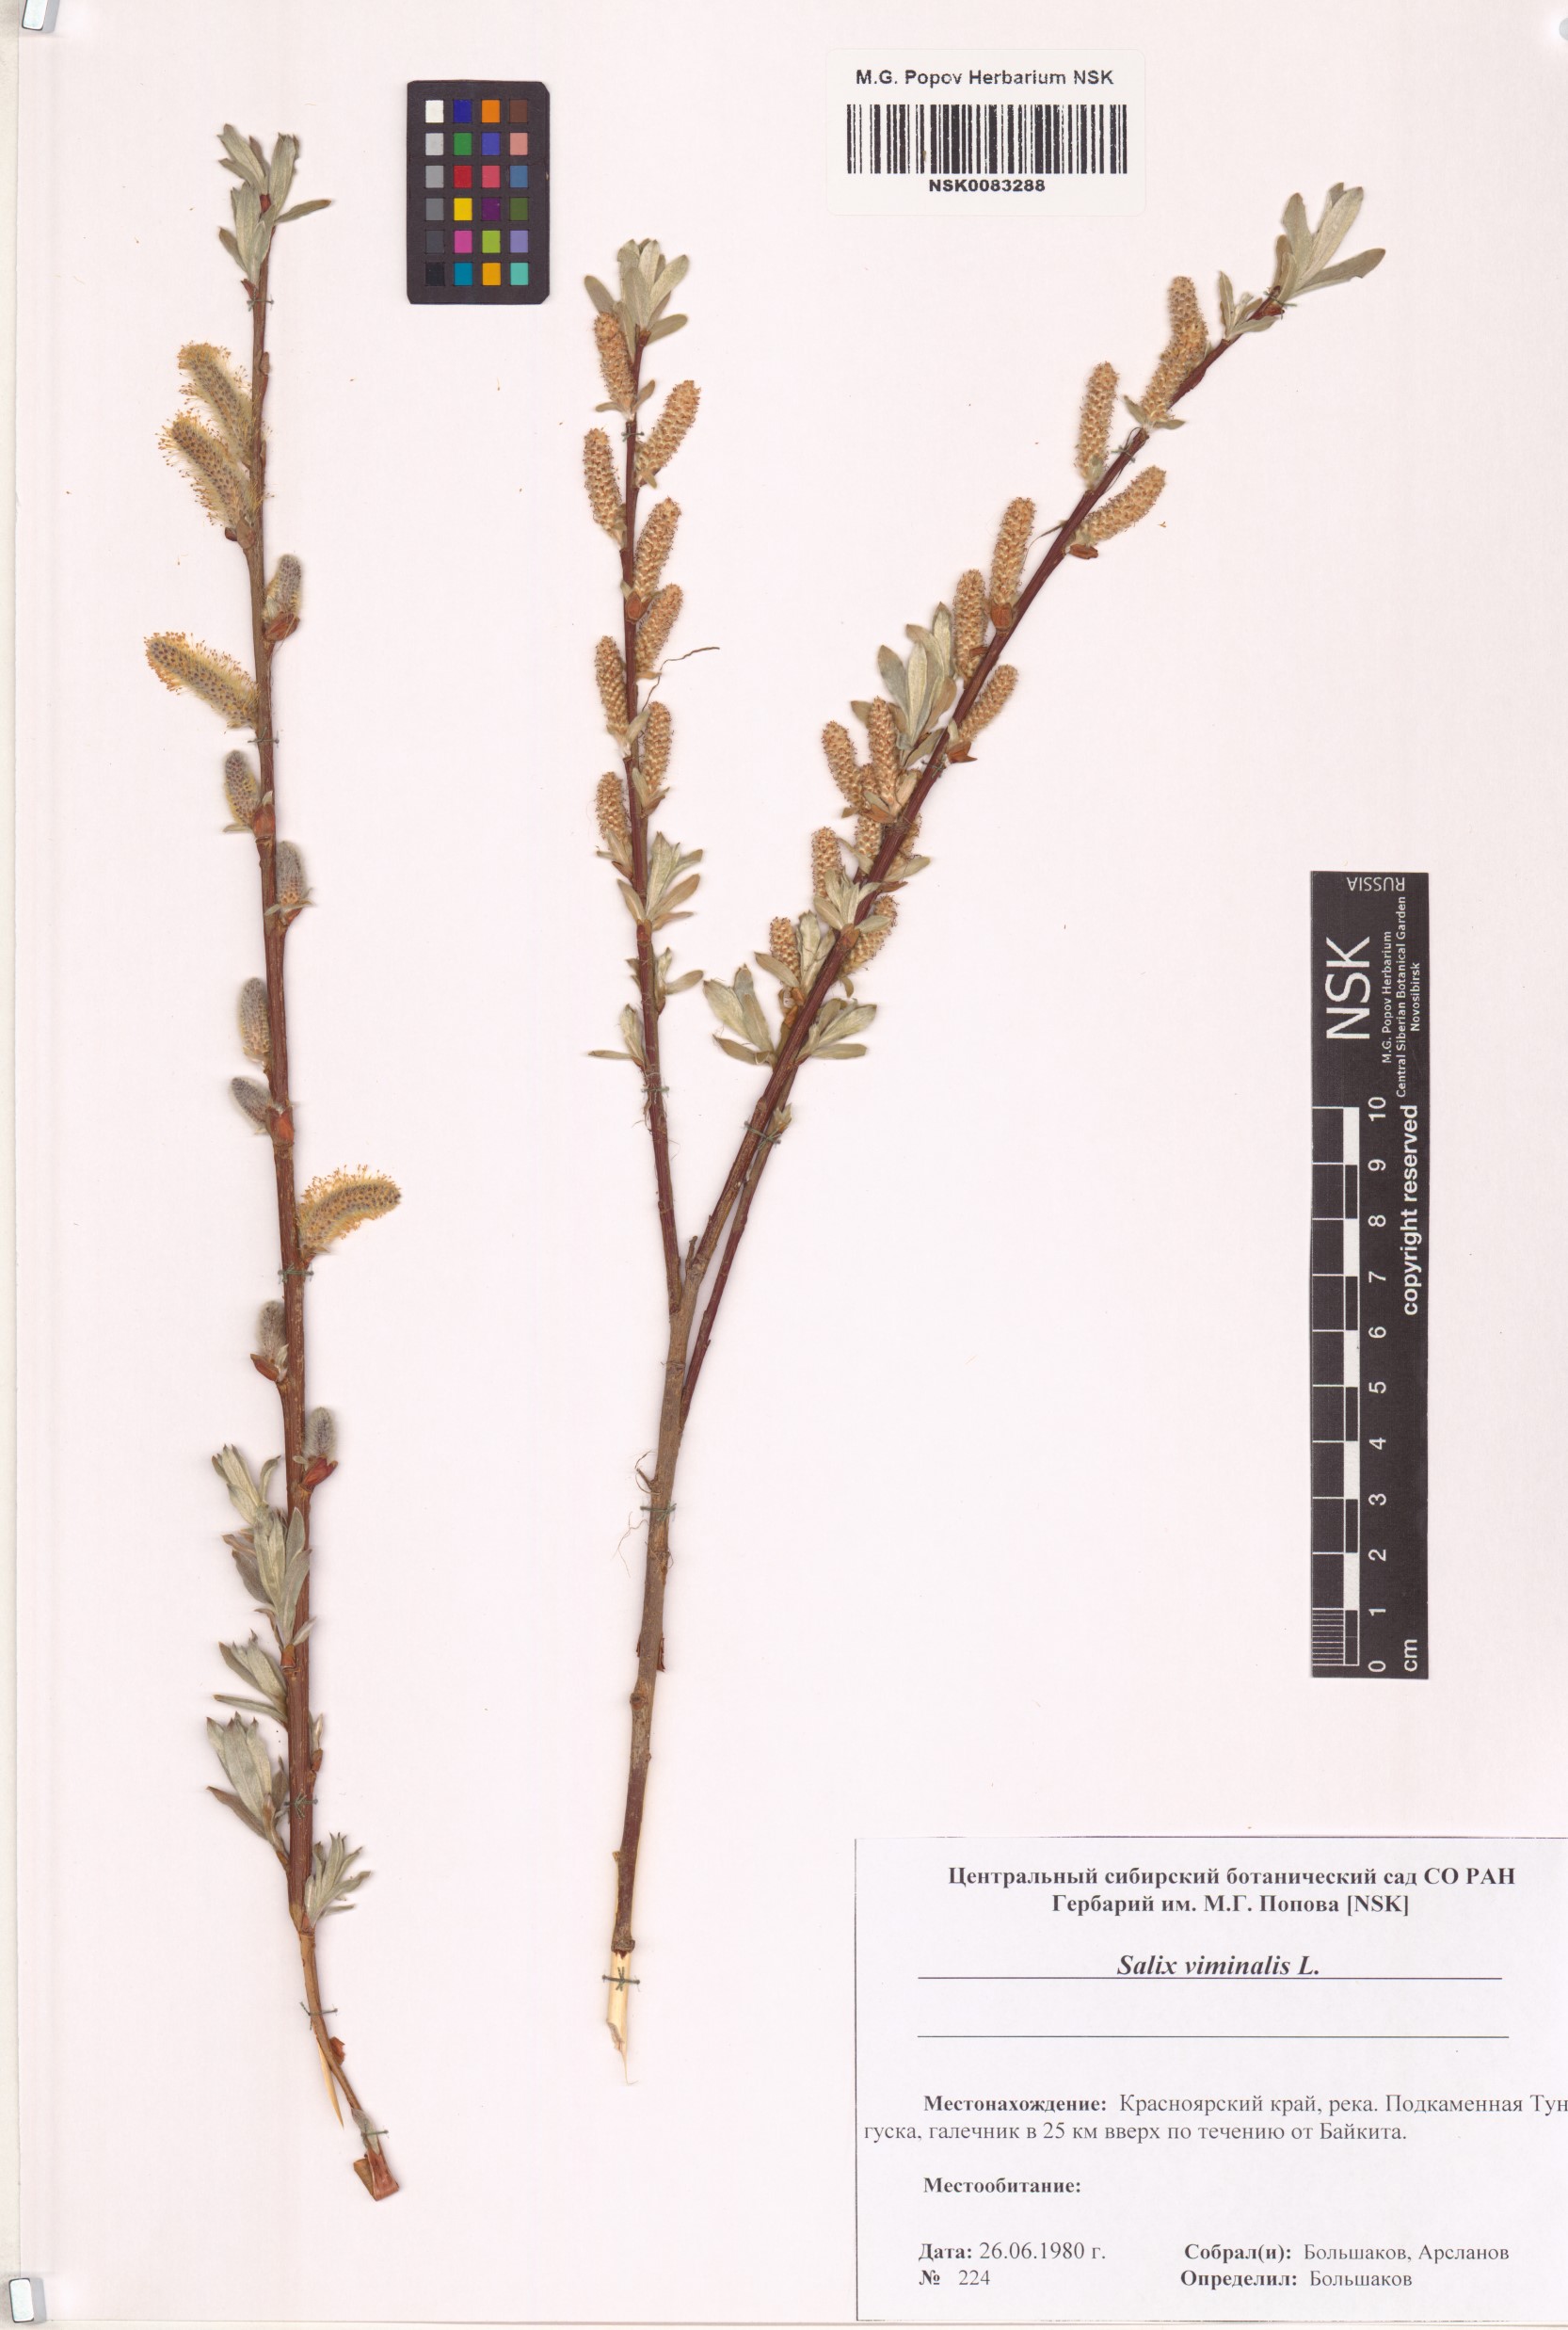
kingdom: Plantae
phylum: Tracheophyta
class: Magnoliopsida
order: Malpighiales
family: Salicaceae
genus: Salix
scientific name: Salix viminalis
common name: Osier
